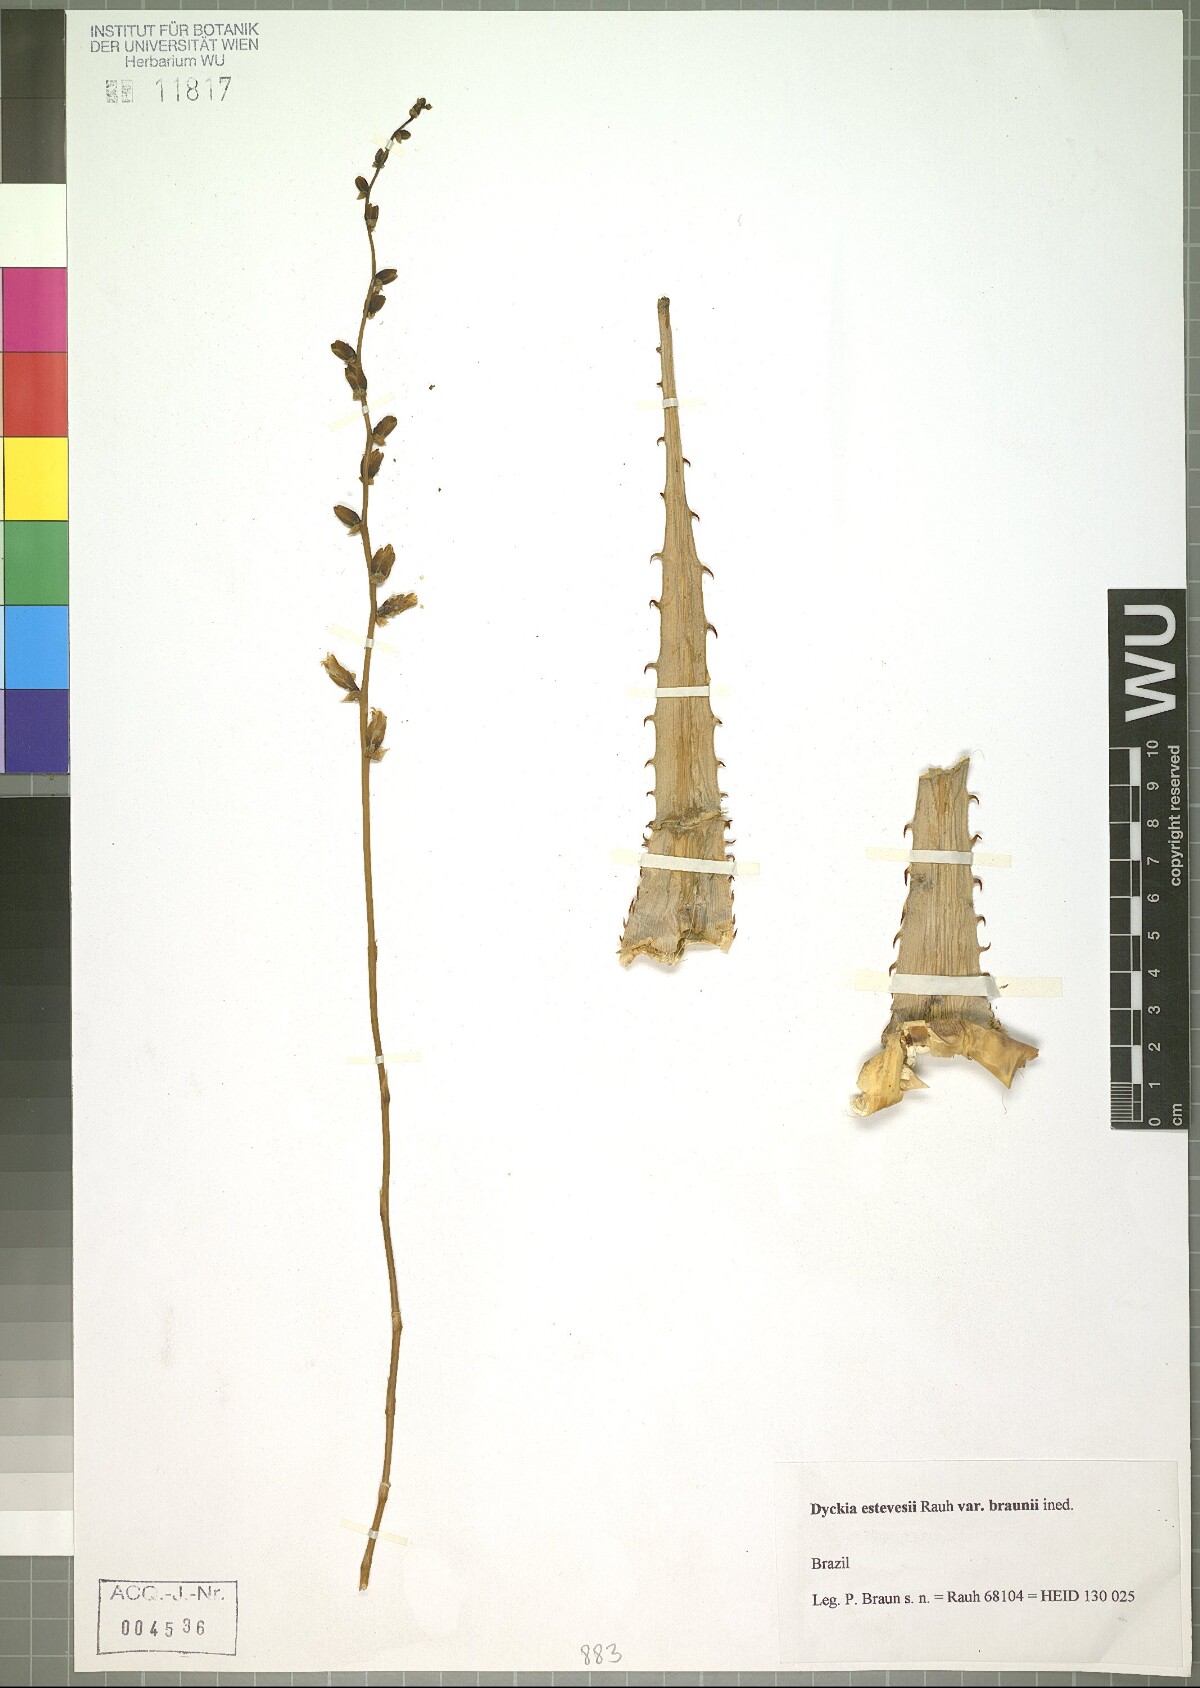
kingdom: Plantae
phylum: Tracheophyta
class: Liliopsida
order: Poales
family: Bromeliaceae
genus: Dyckia
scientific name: Dyckia estevesii
